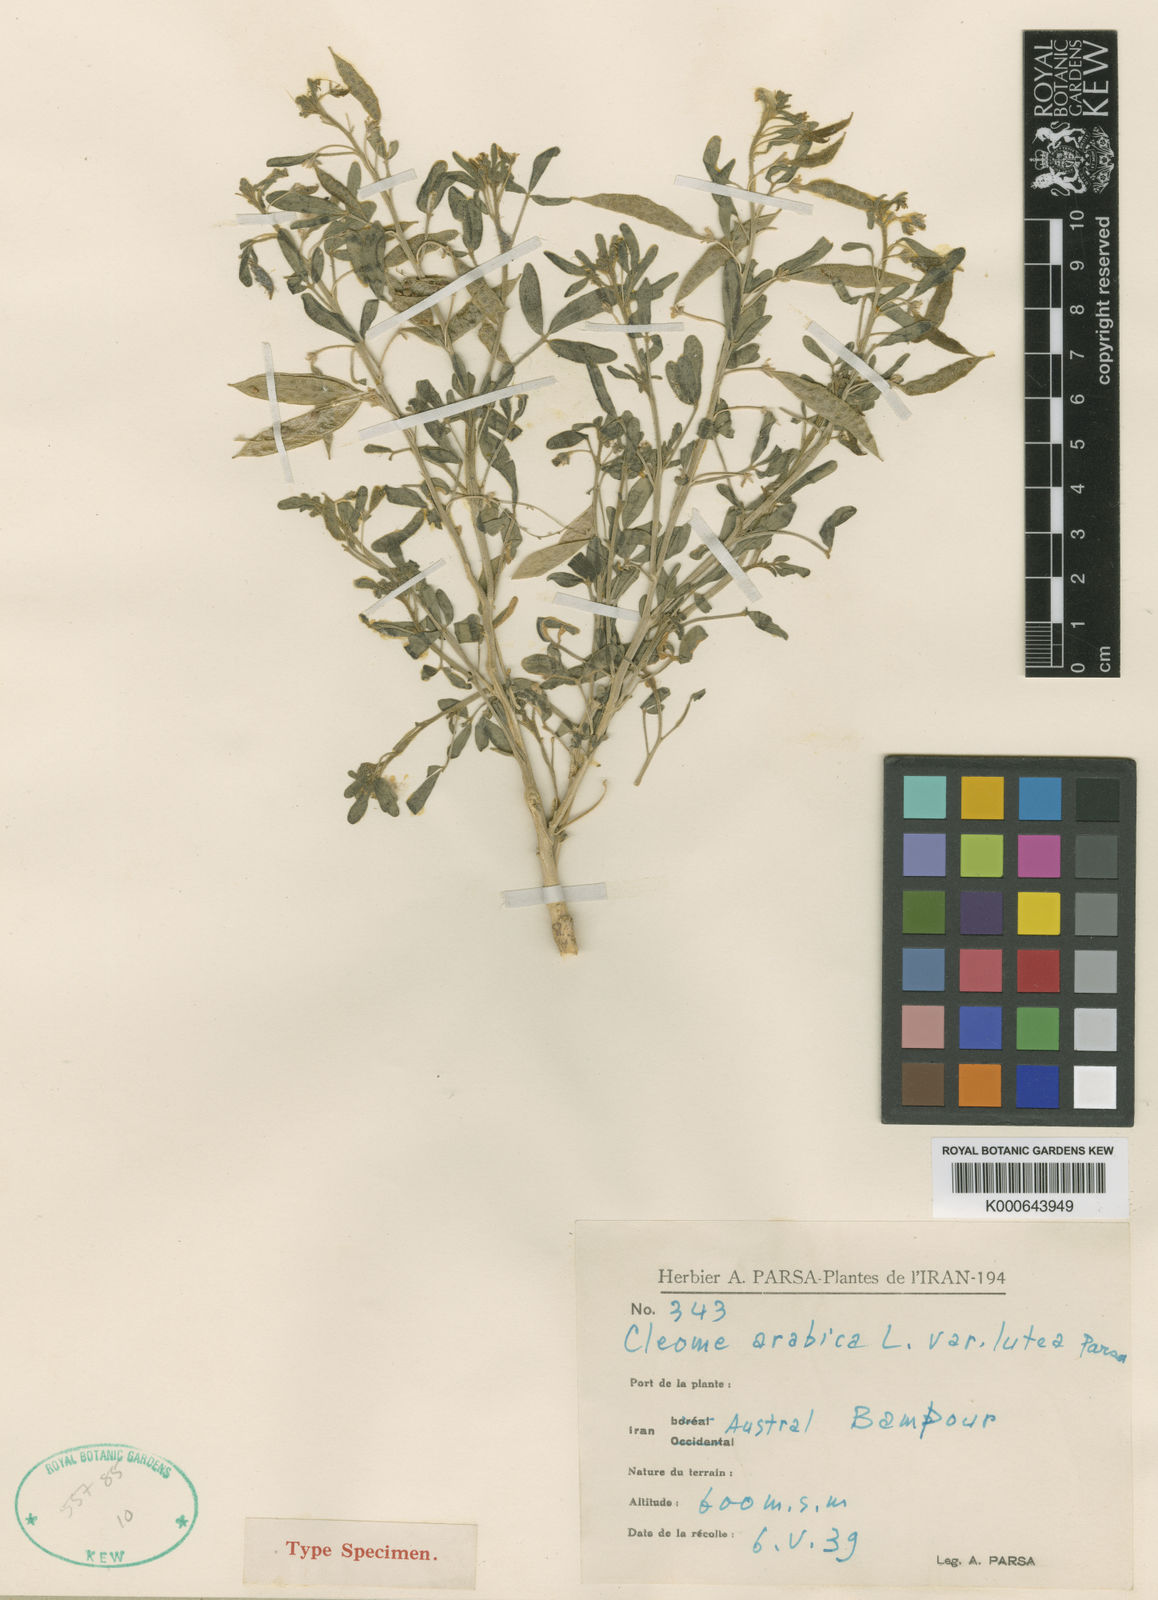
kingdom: Plantae
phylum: Tracheophyta
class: Magnoliopsida
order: Brassicales
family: Cleomaceae
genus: Cleome
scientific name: Cleome amblyocarpa
